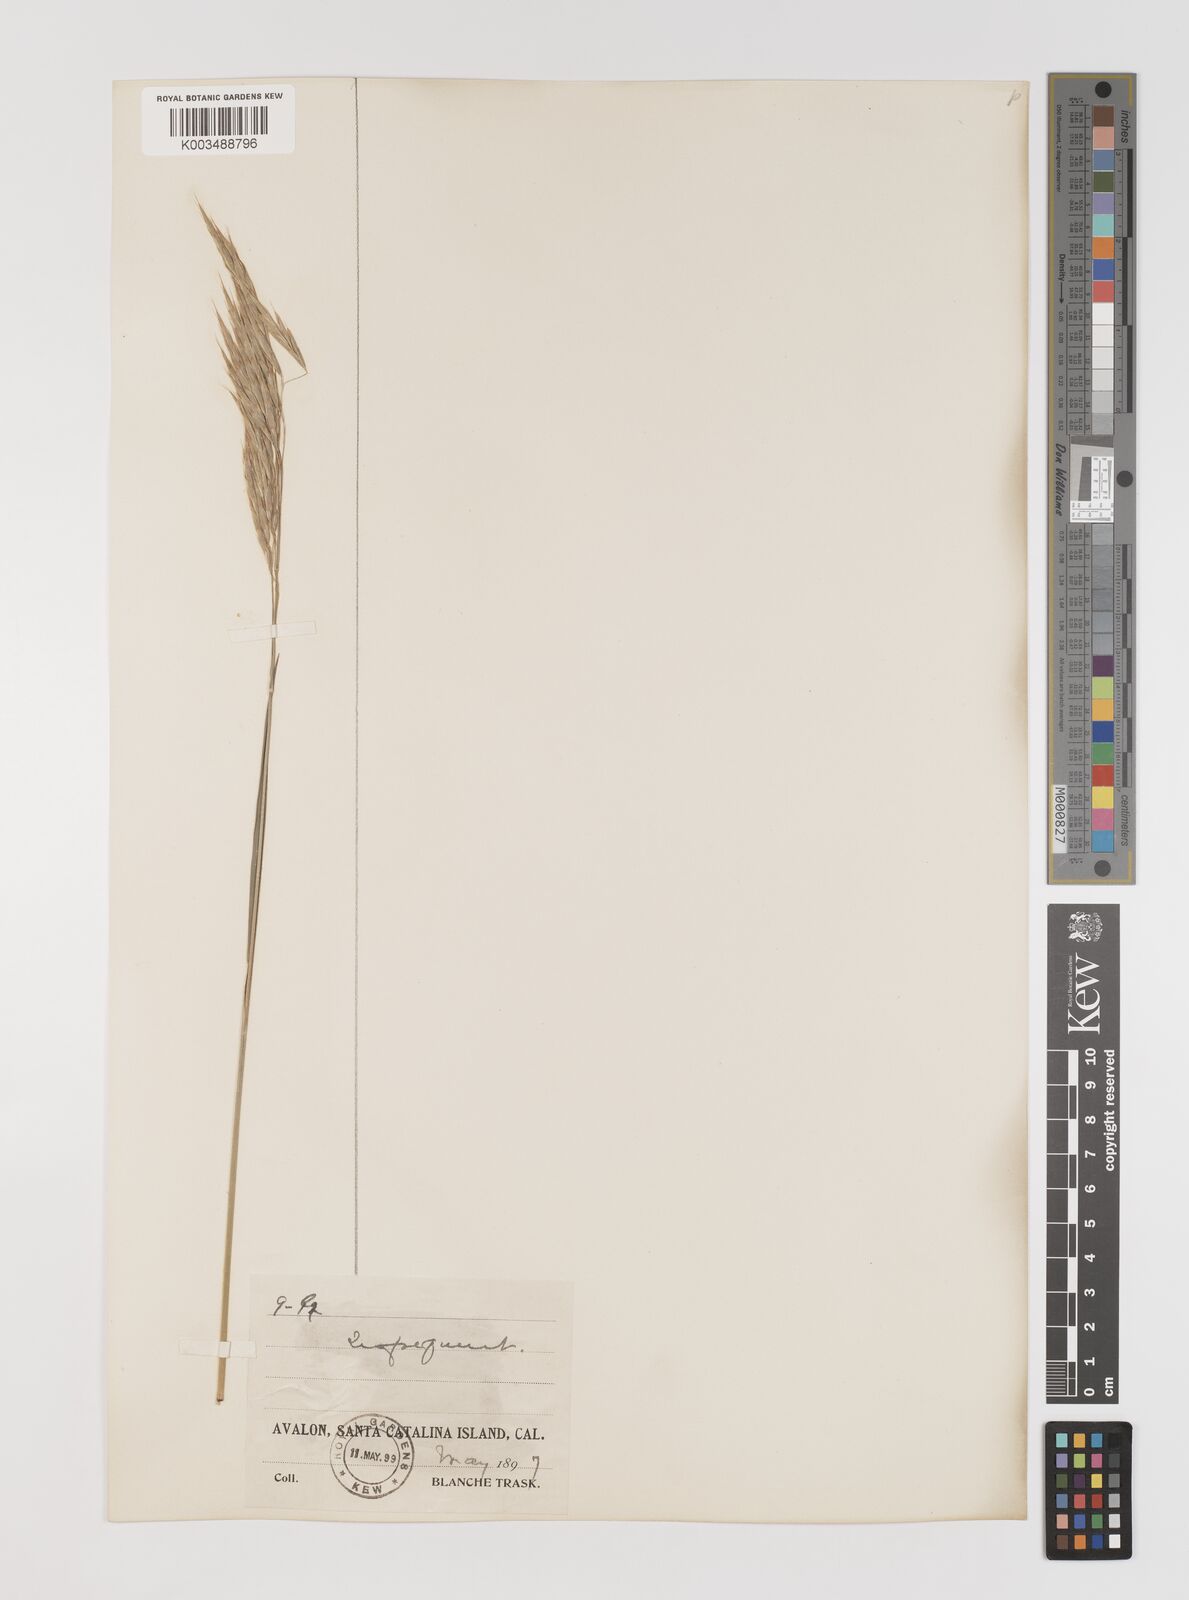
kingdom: Plantae
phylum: Tracheophyta
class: Liliopsida
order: Poales
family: Poaceae
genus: Bromus
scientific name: Bromus
